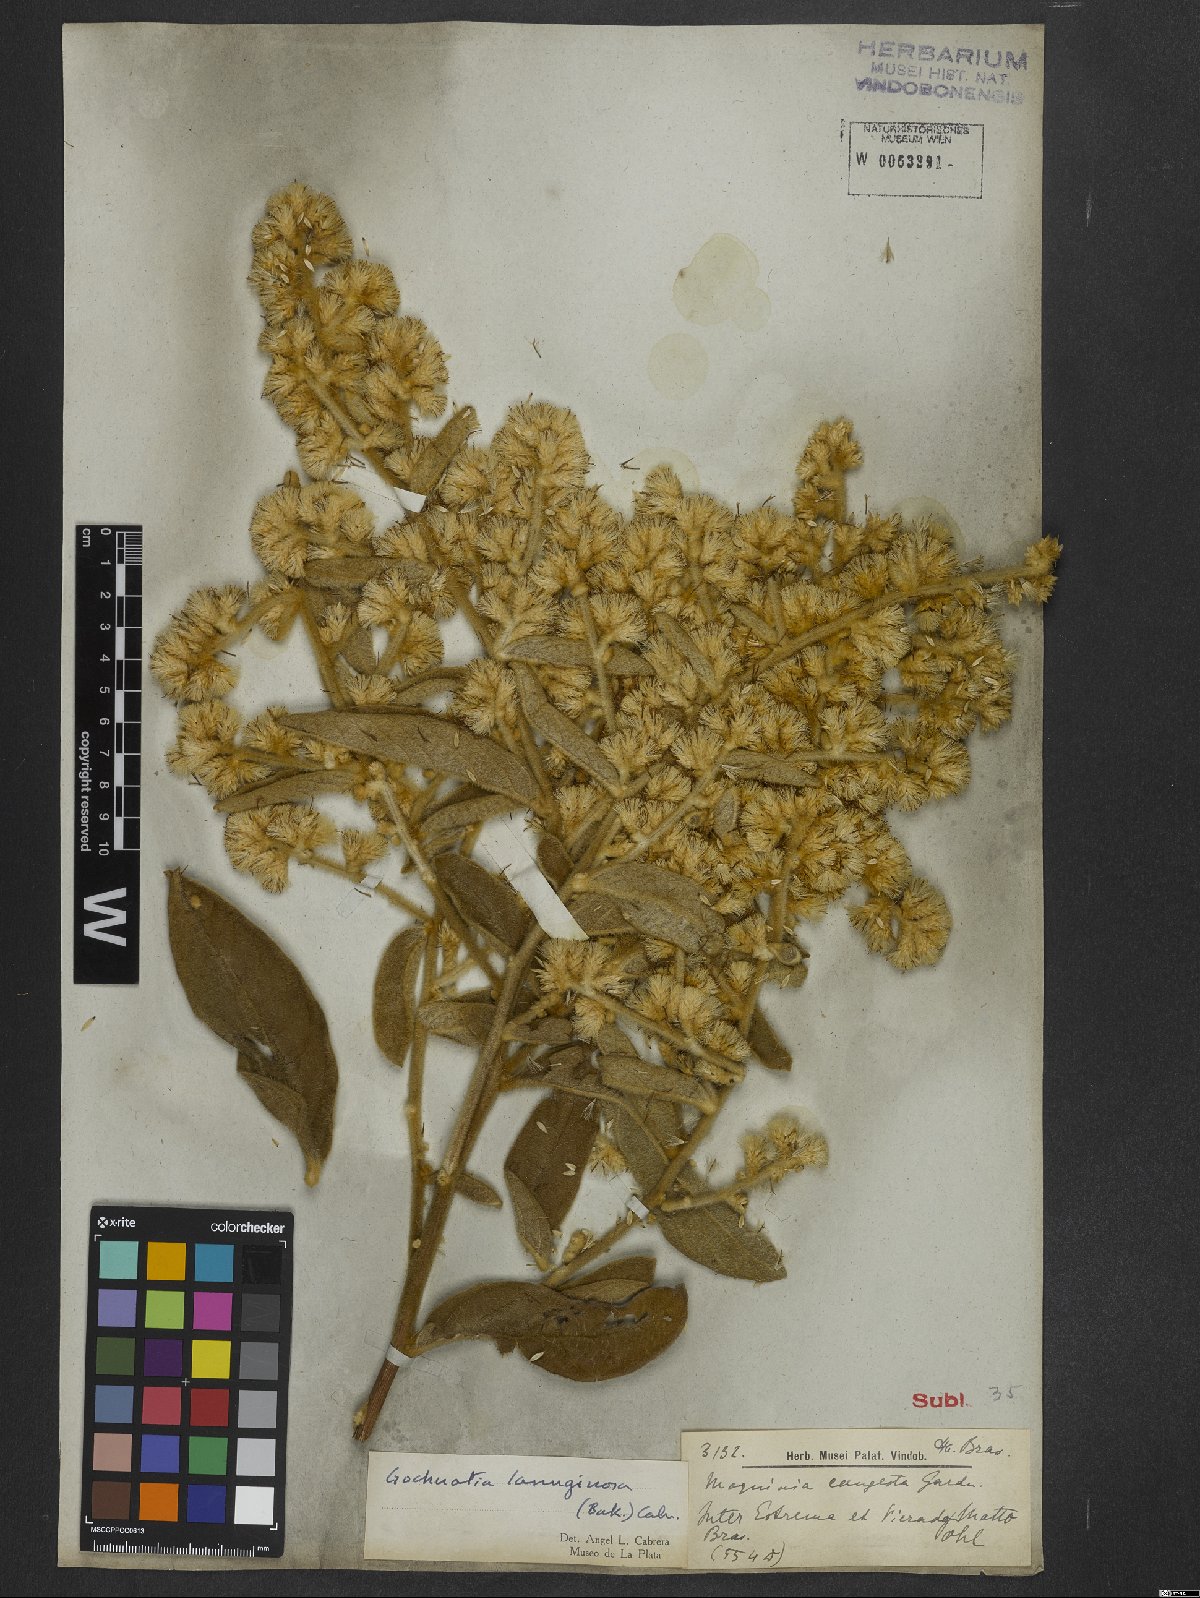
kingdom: Plantae
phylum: Tracheophyta
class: Magnoliopsida
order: Asterales
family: Asteraceae
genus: Moquiniastrum
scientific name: Moquiniastrum paniculatum
